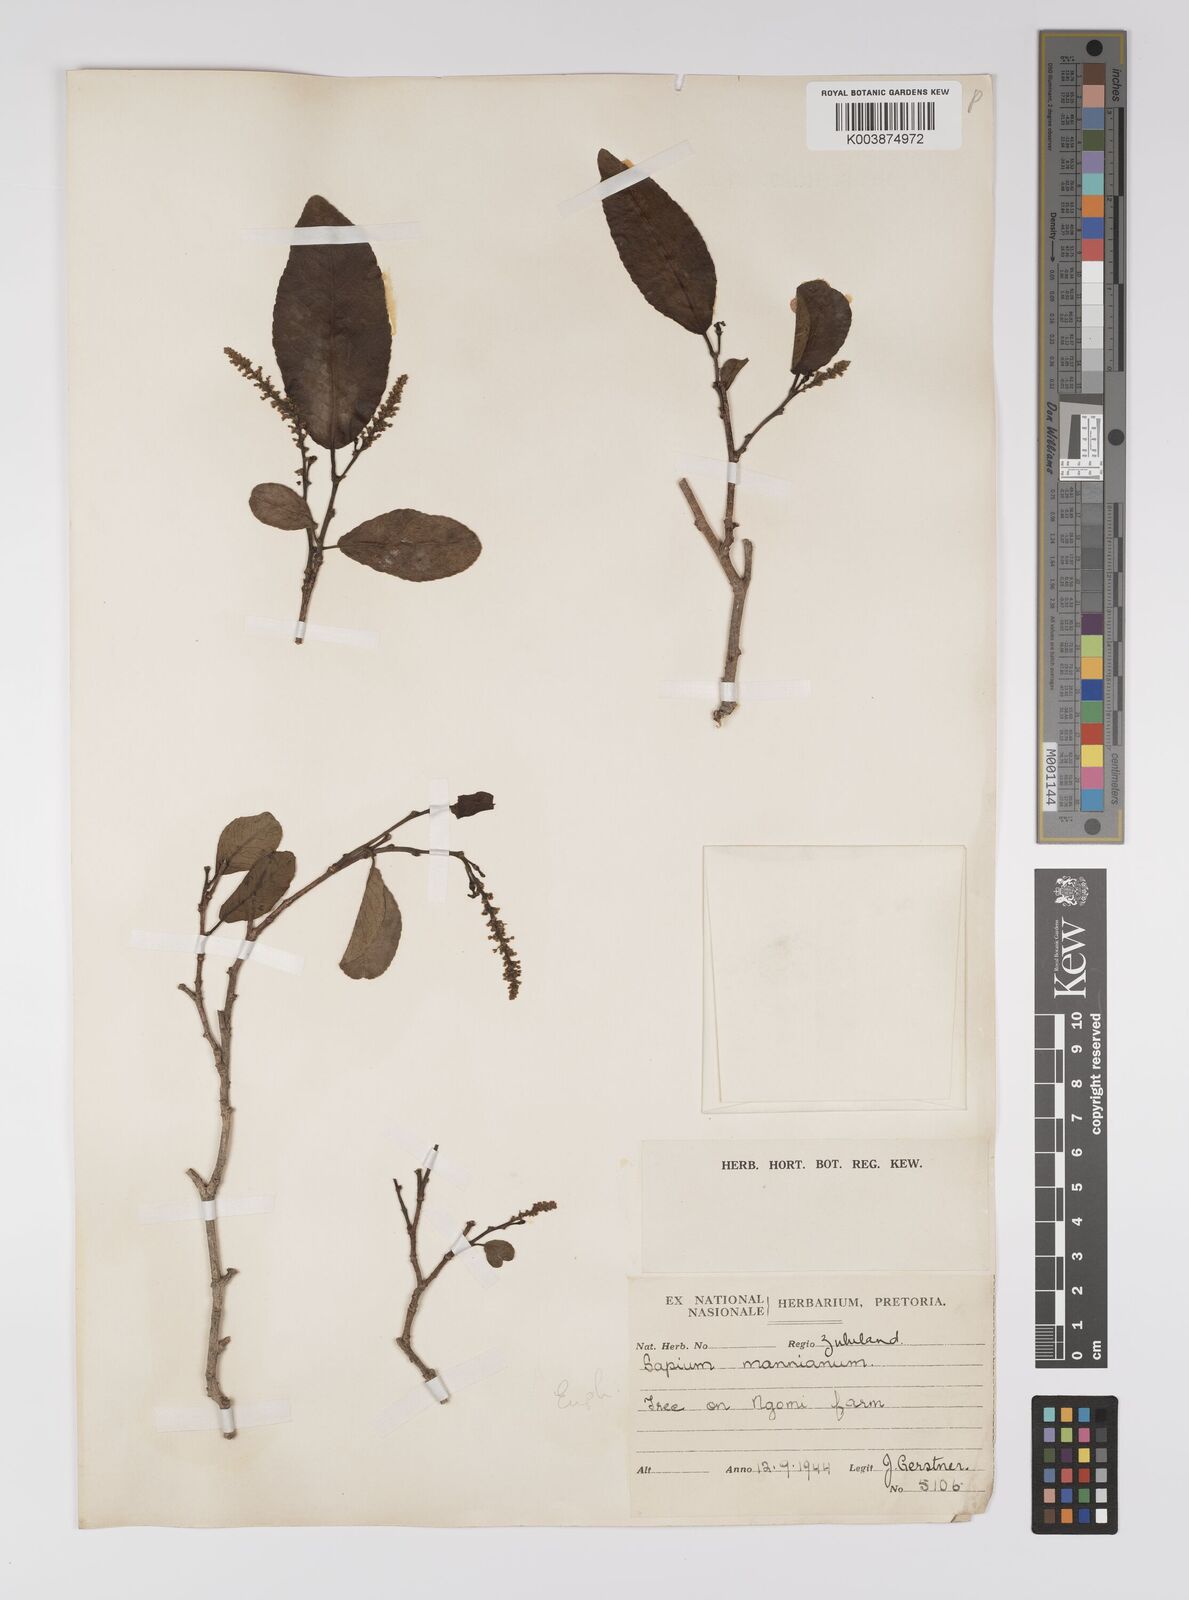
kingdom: Plantae
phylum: Tracheophyta
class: Magnoliopsida
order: Malpighiales
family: Euphorbiaceae
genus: Shirakiopsis
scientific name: Shirakiopsis elliptica
